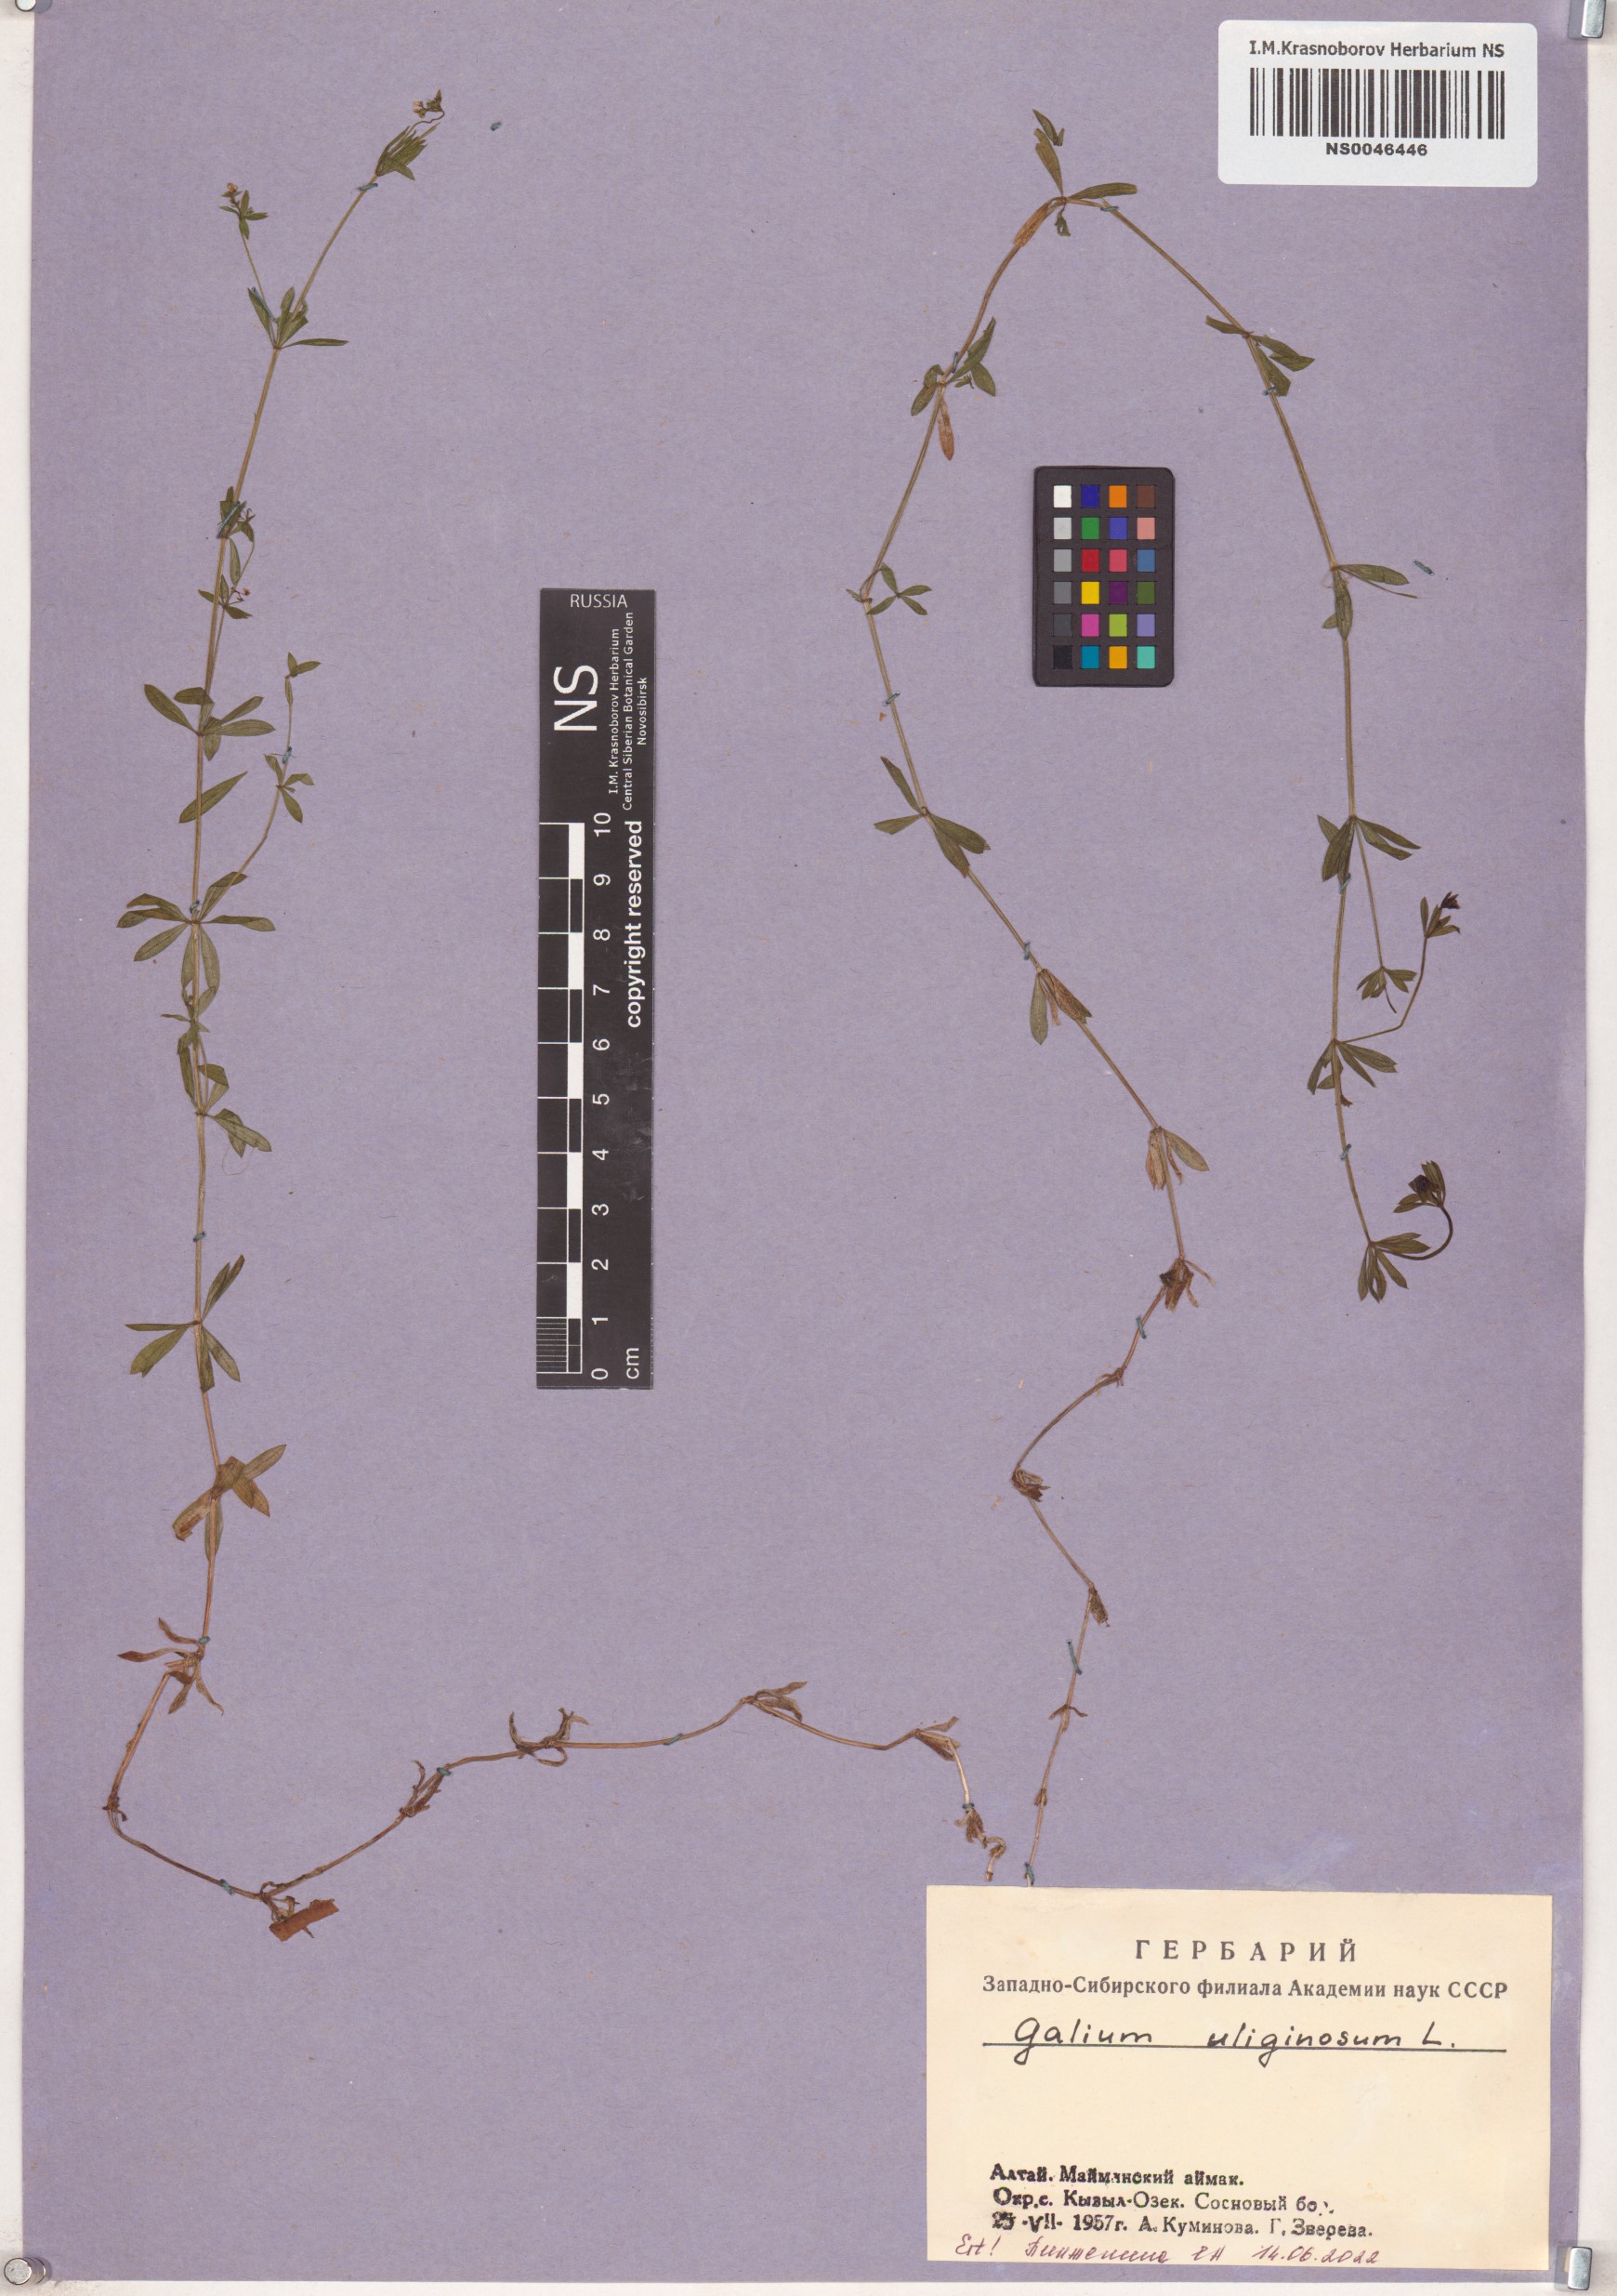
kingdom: Plantae
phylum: Tracheophyta
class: Magnoliopsida
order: Gentianales
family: Rubiaceae
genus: Galium
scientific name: Galium uliginosum
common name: Fen bedstraw
